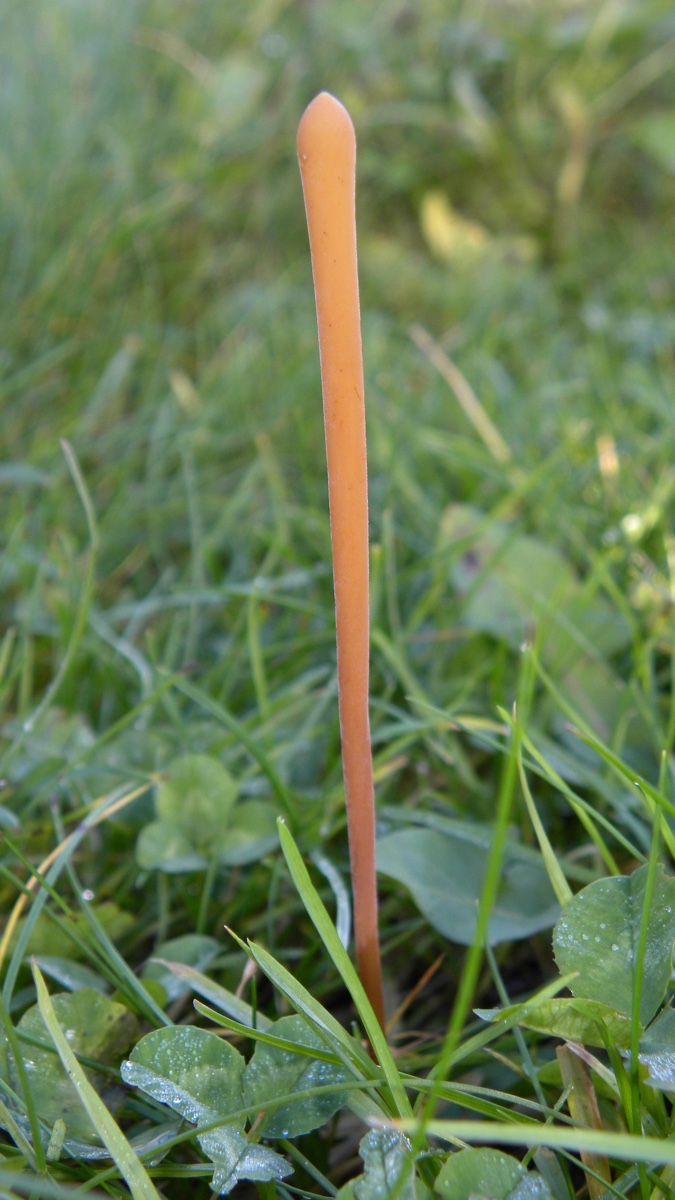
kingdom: Fungi
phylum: Basidiomycota
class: Agaricomycetes
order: Agaricales
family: Typhulaceae
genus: Typhula
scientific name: Typhula fistulosa
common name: pibet rørkølle
